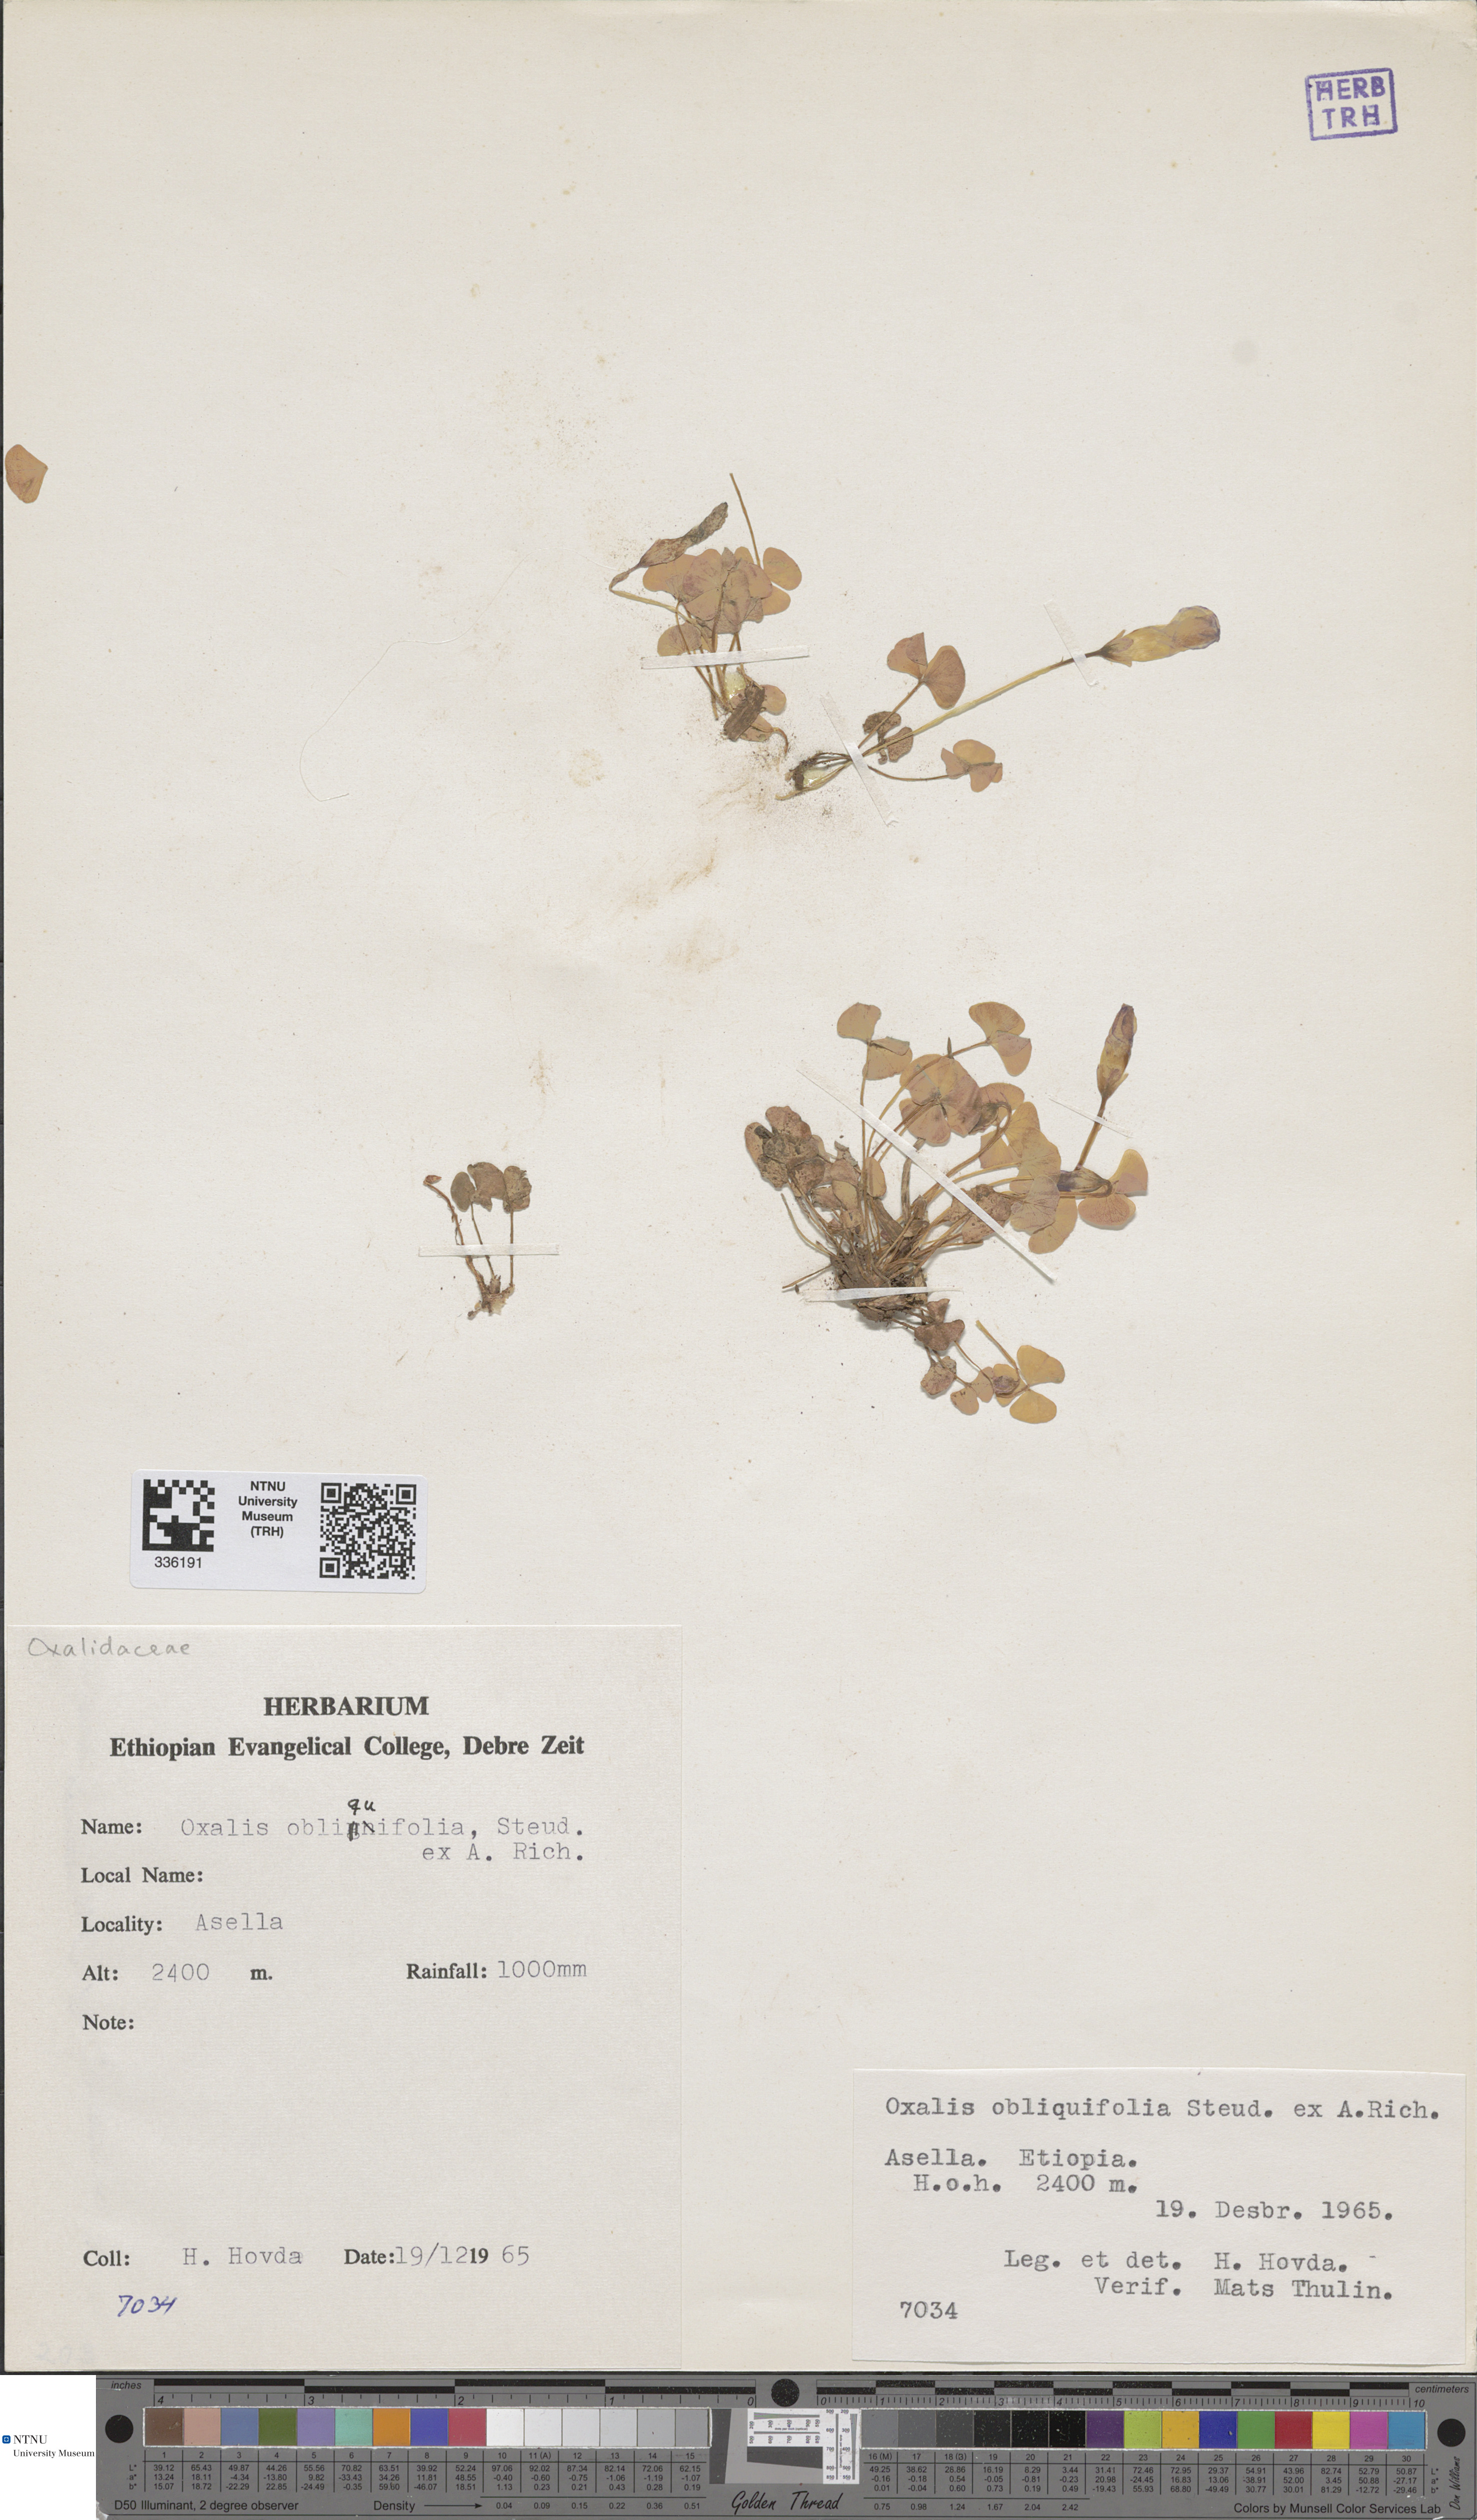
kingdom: Plantae
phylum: Tracheophyta
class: Magnoliopsida
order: Oxalidales
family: Oxalidaceae
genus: Oxalis
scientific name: Oxalis obliquifolia
